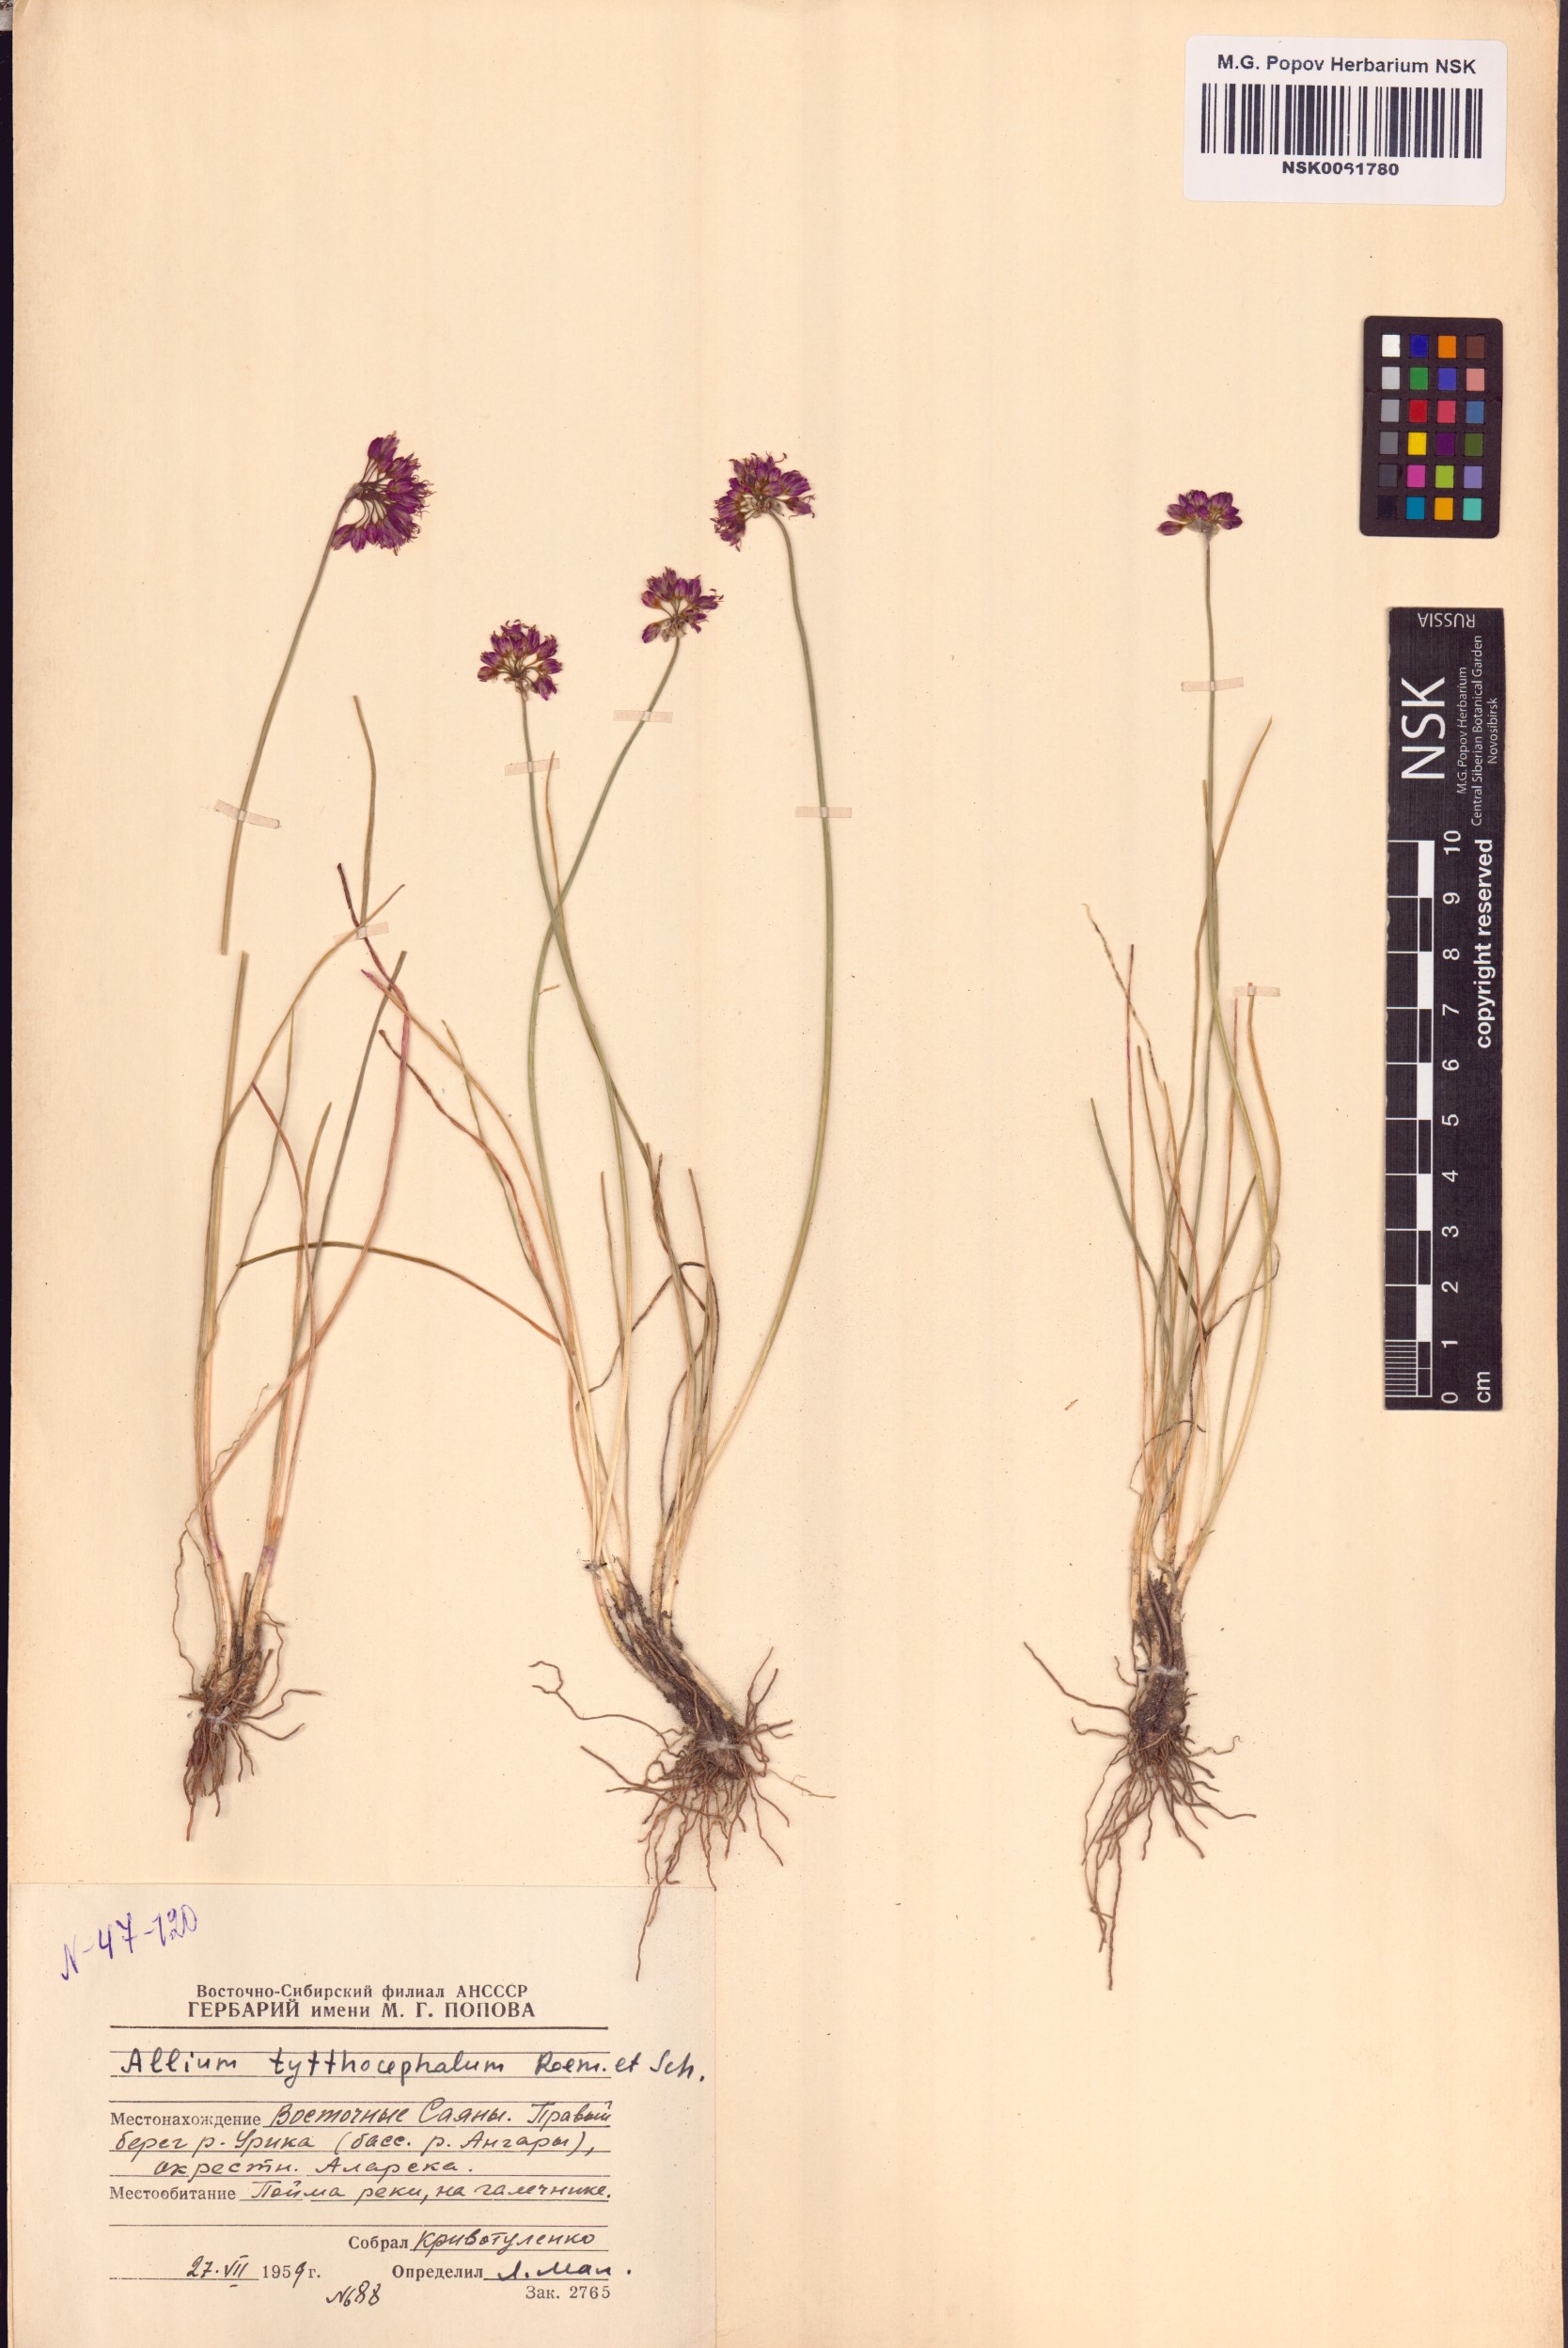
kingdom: Plantae
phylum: Tracheophyta
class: Liliopsida
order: Asparagales
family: Amaryllidaceae
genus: Allium
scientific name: Allium tytthocephalum
